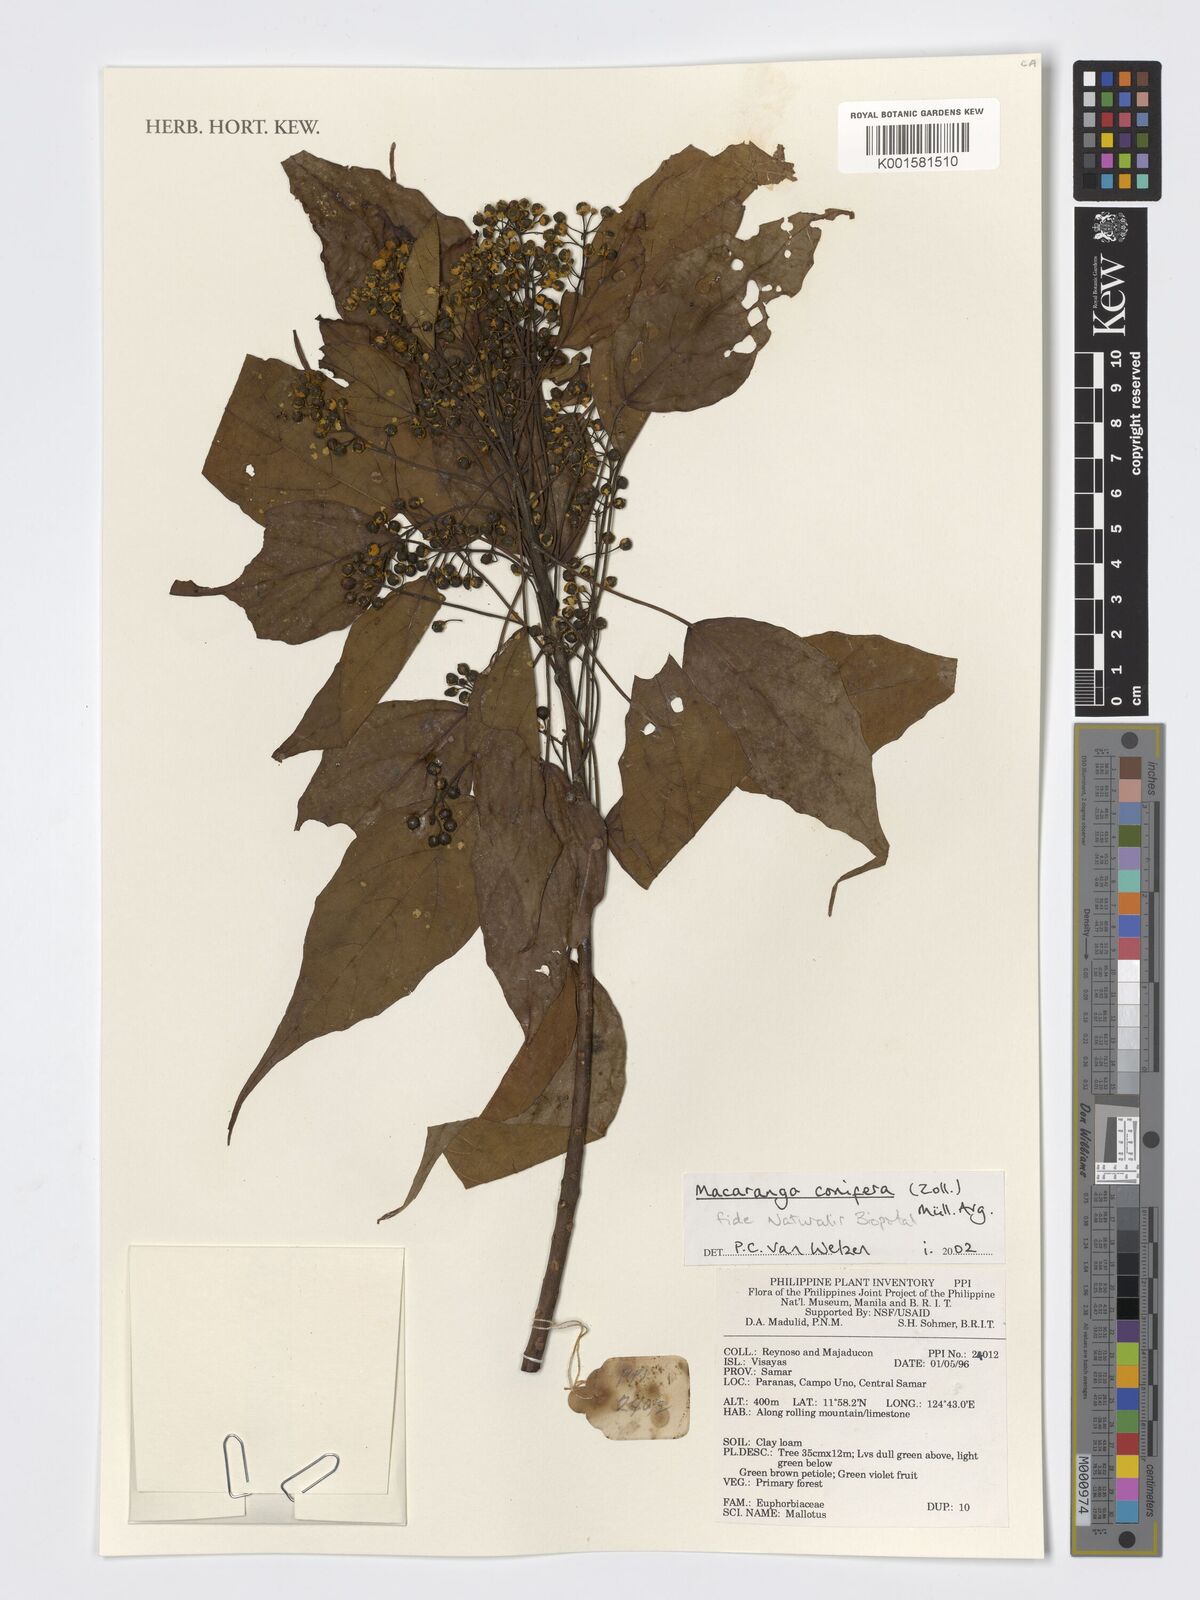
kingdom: Plantae
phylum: Tracheophyta
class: Magnoliopsida
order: Malpighiales
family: Euphorbiaceae
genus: Macaranga
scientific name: Macaranga conifera
